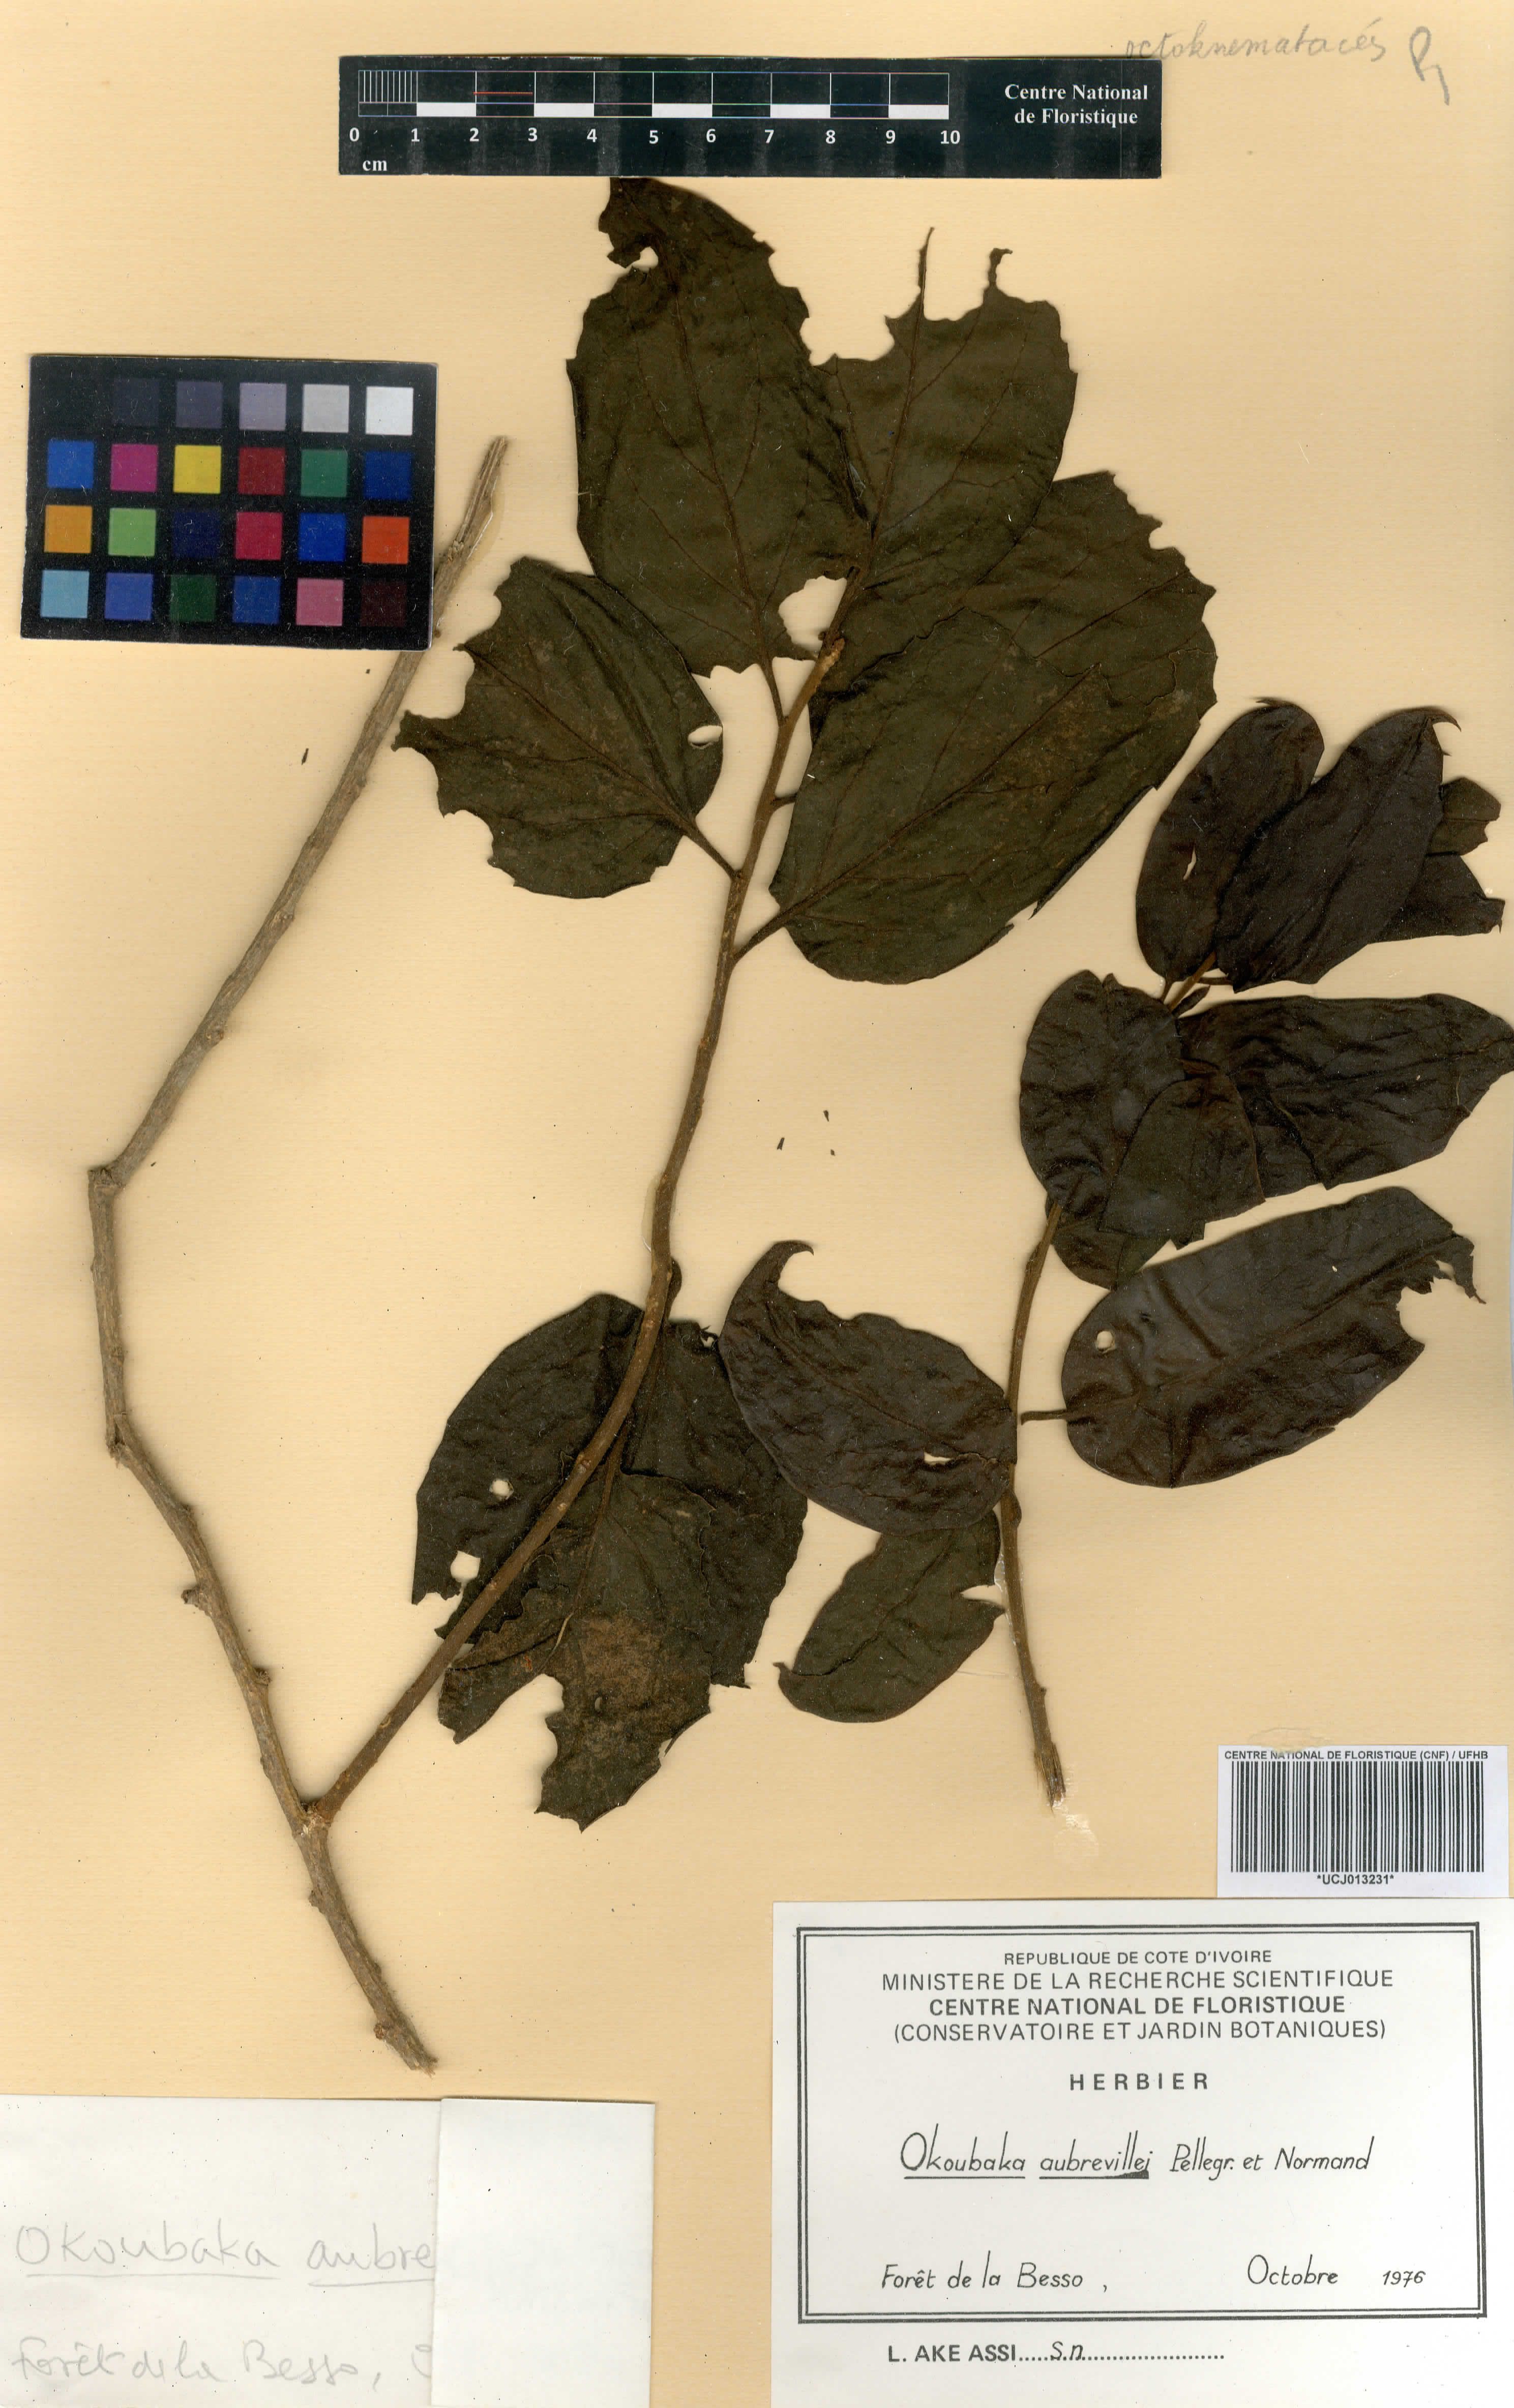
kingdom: Plantae
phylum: Tracheophyta
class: Magnoliopsida
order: Santalales
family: Cervantesiaceae
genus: Okoubaka
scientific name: Okoubaka aubrevillei
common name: Death tree
